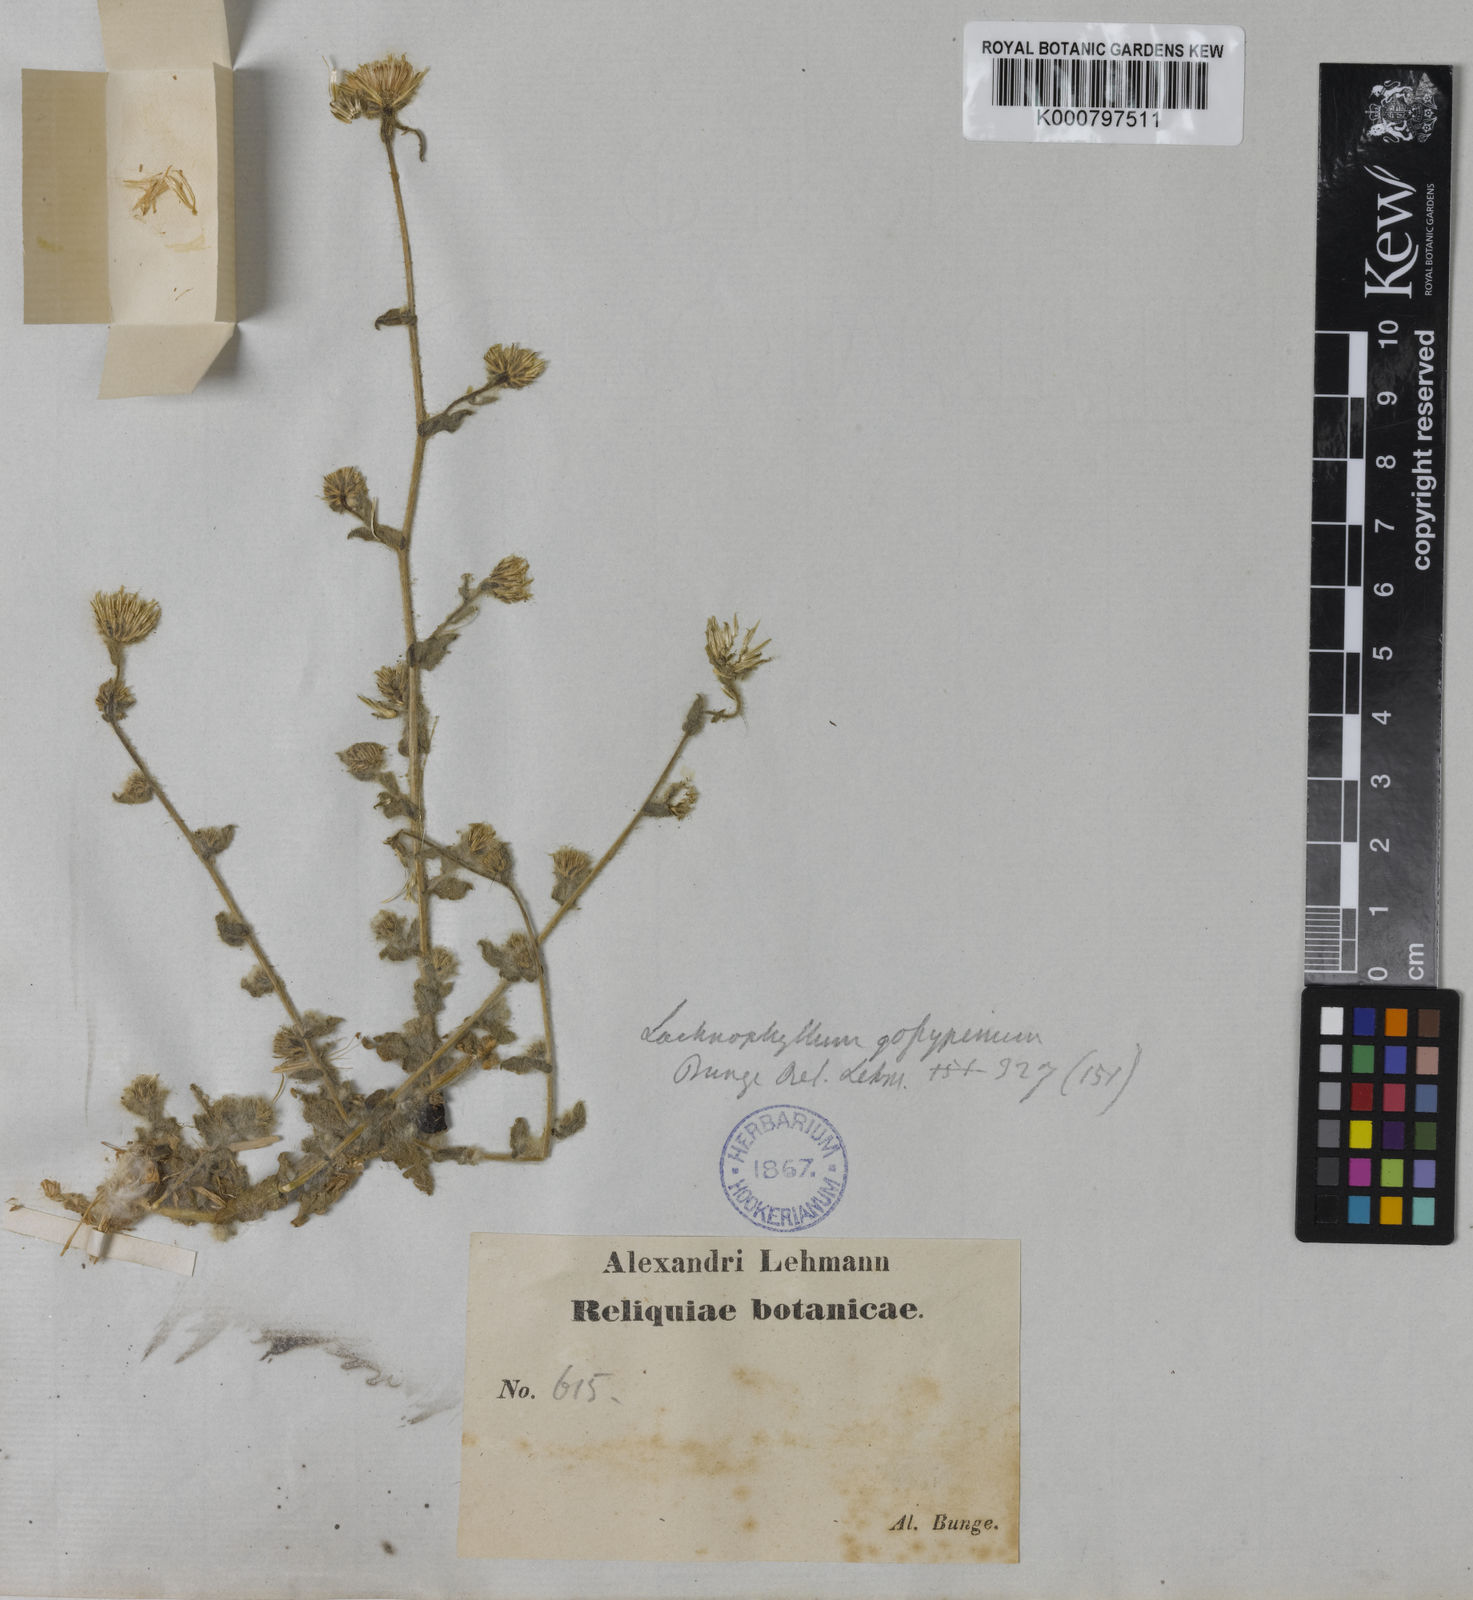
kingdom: Plantae
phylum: Tracheophyta
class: Magnoliopsida
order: Asterales
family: Asteraceae
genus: Lachnophyllum
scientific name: Lachnophyllum gossypinum
